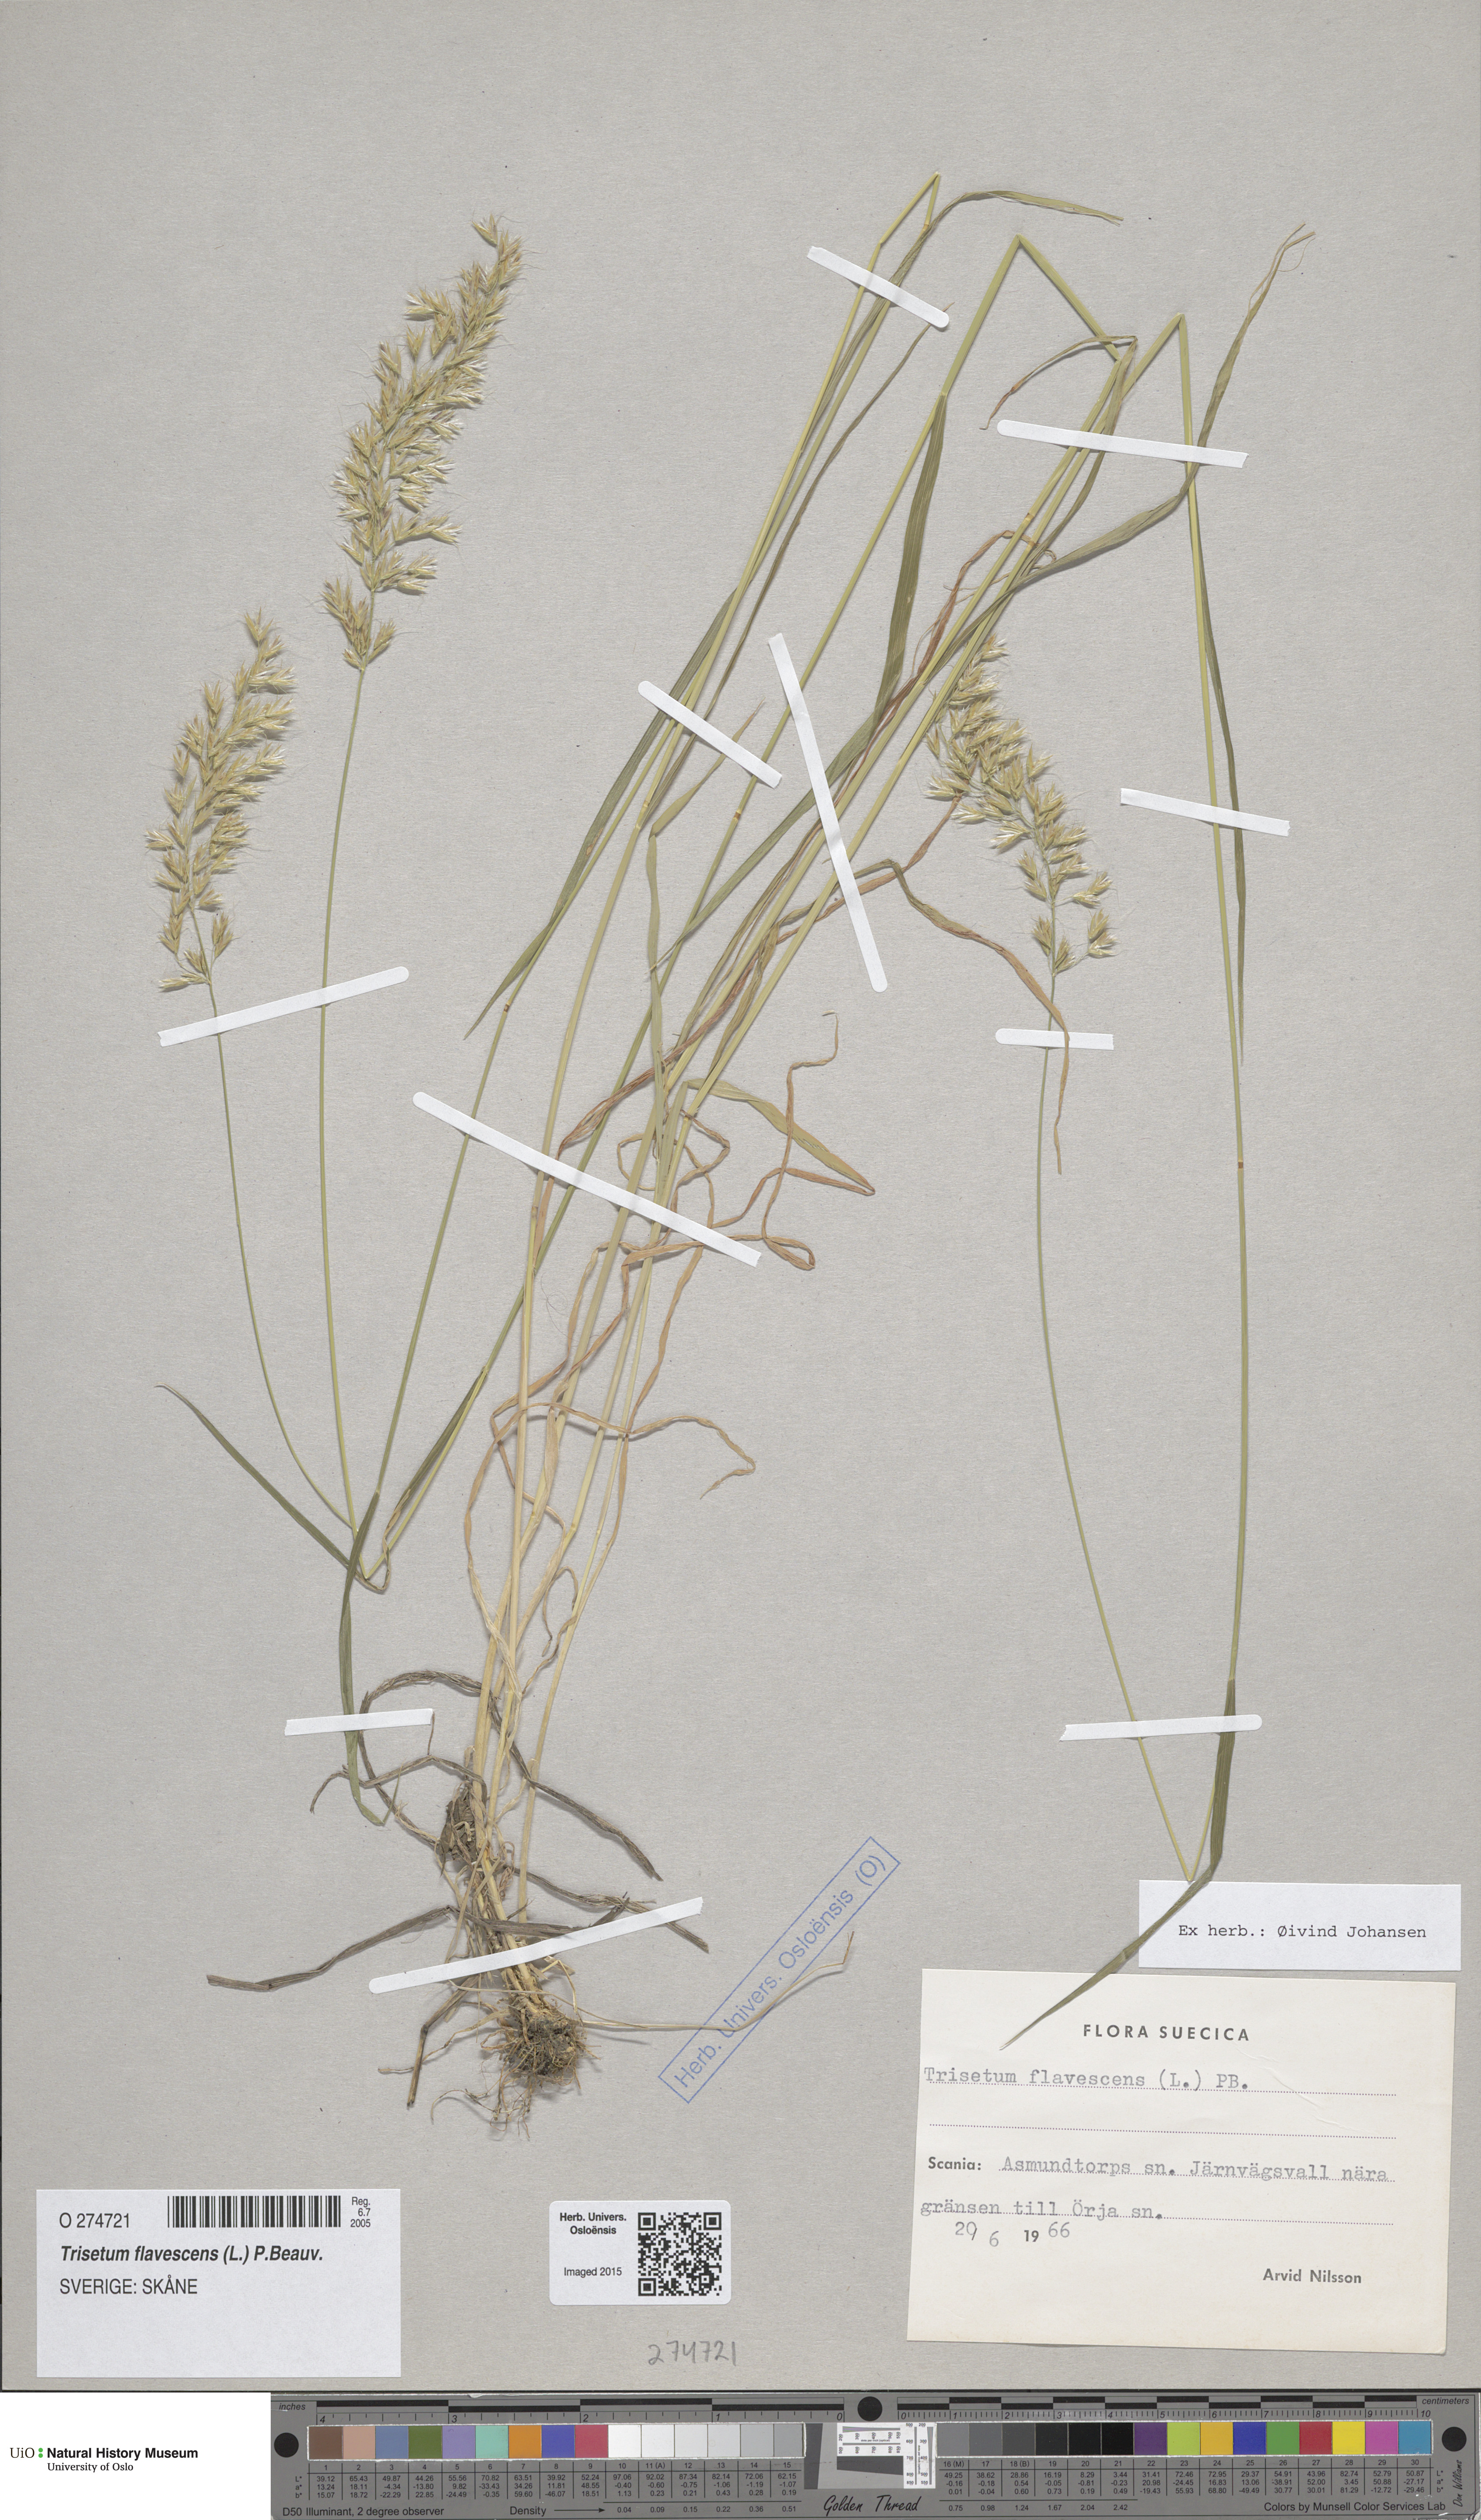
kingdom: Plantae
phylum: Tracheophyta
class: Liliopsida
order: Poales
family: Poaceae
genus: Trisetum
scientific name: Trisetum flavescens
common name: Yellow oat-grass
